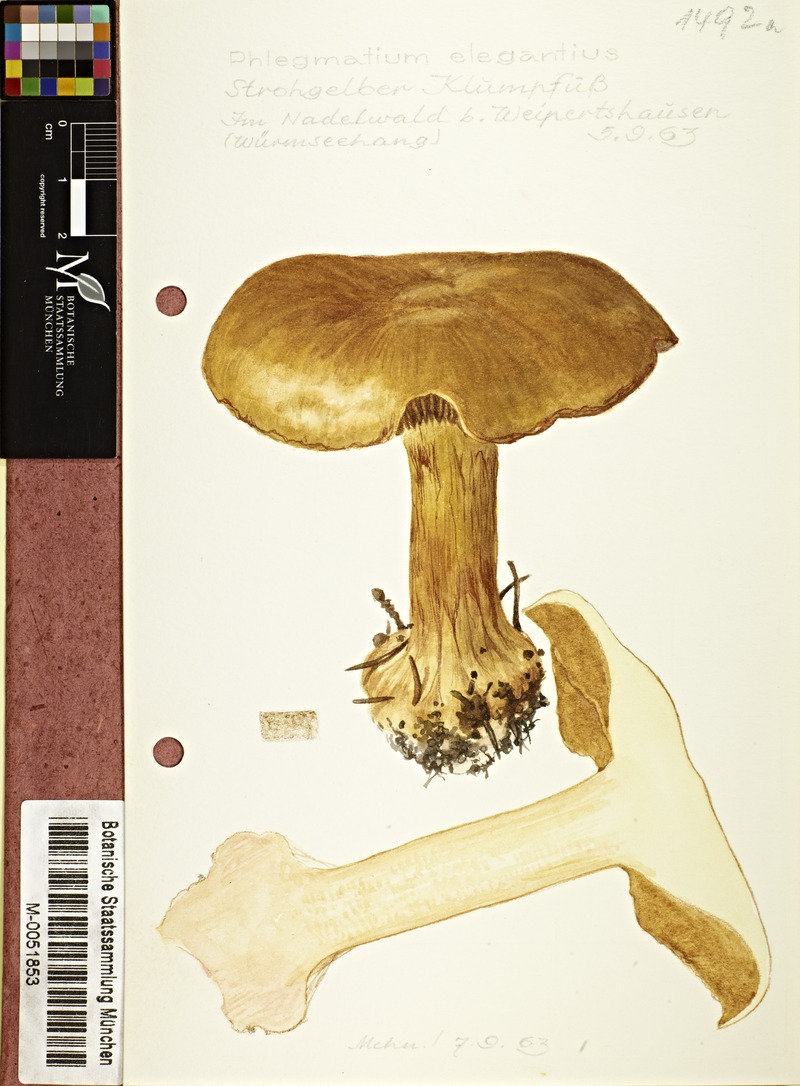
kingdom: Fungi
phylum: Basidiomycota
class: Agaricomycetes
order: Agaricales
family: Cortinariaceae
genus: Calonarius
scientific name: Calonarius elegantior
